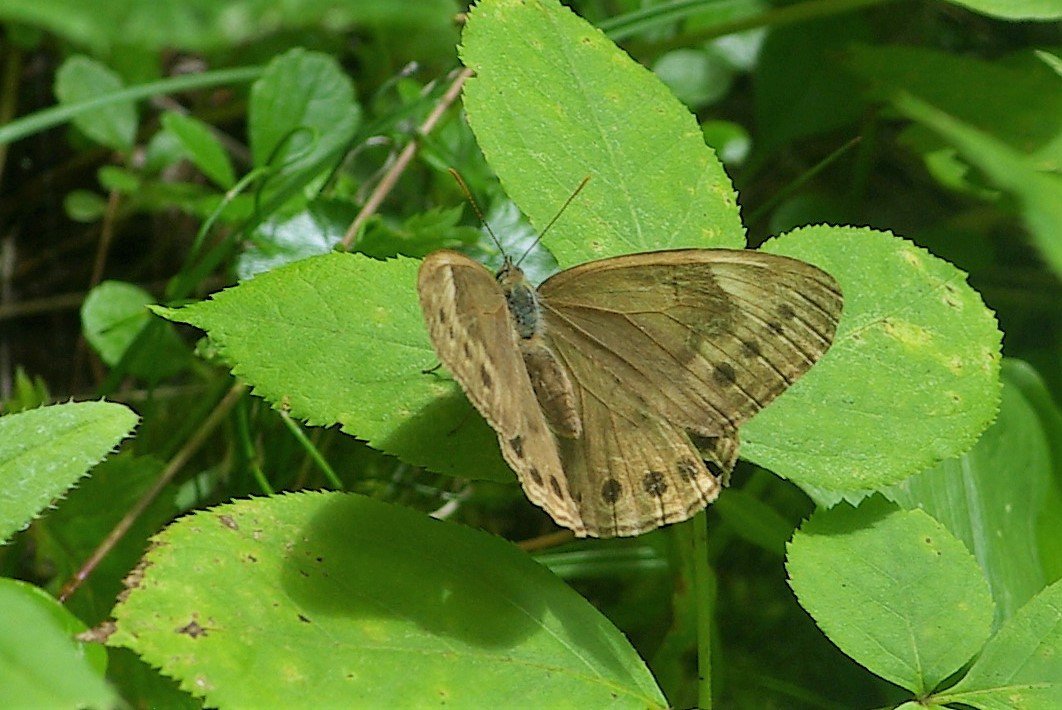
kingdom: Animalia
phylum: Arthropoda
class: Insecta
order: Lepidoptera
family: Nymphalidae
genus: Lethe
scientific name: Lethe eurydice
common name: Eyed Brown
